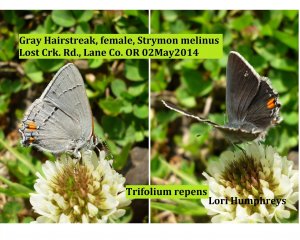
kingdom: Animalia
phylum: Arthropoda
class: Insecta
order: Lepidoptera
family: Lycaenidae
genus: Strymon
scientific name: Strymon melinus
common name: Gray Hairstreak
